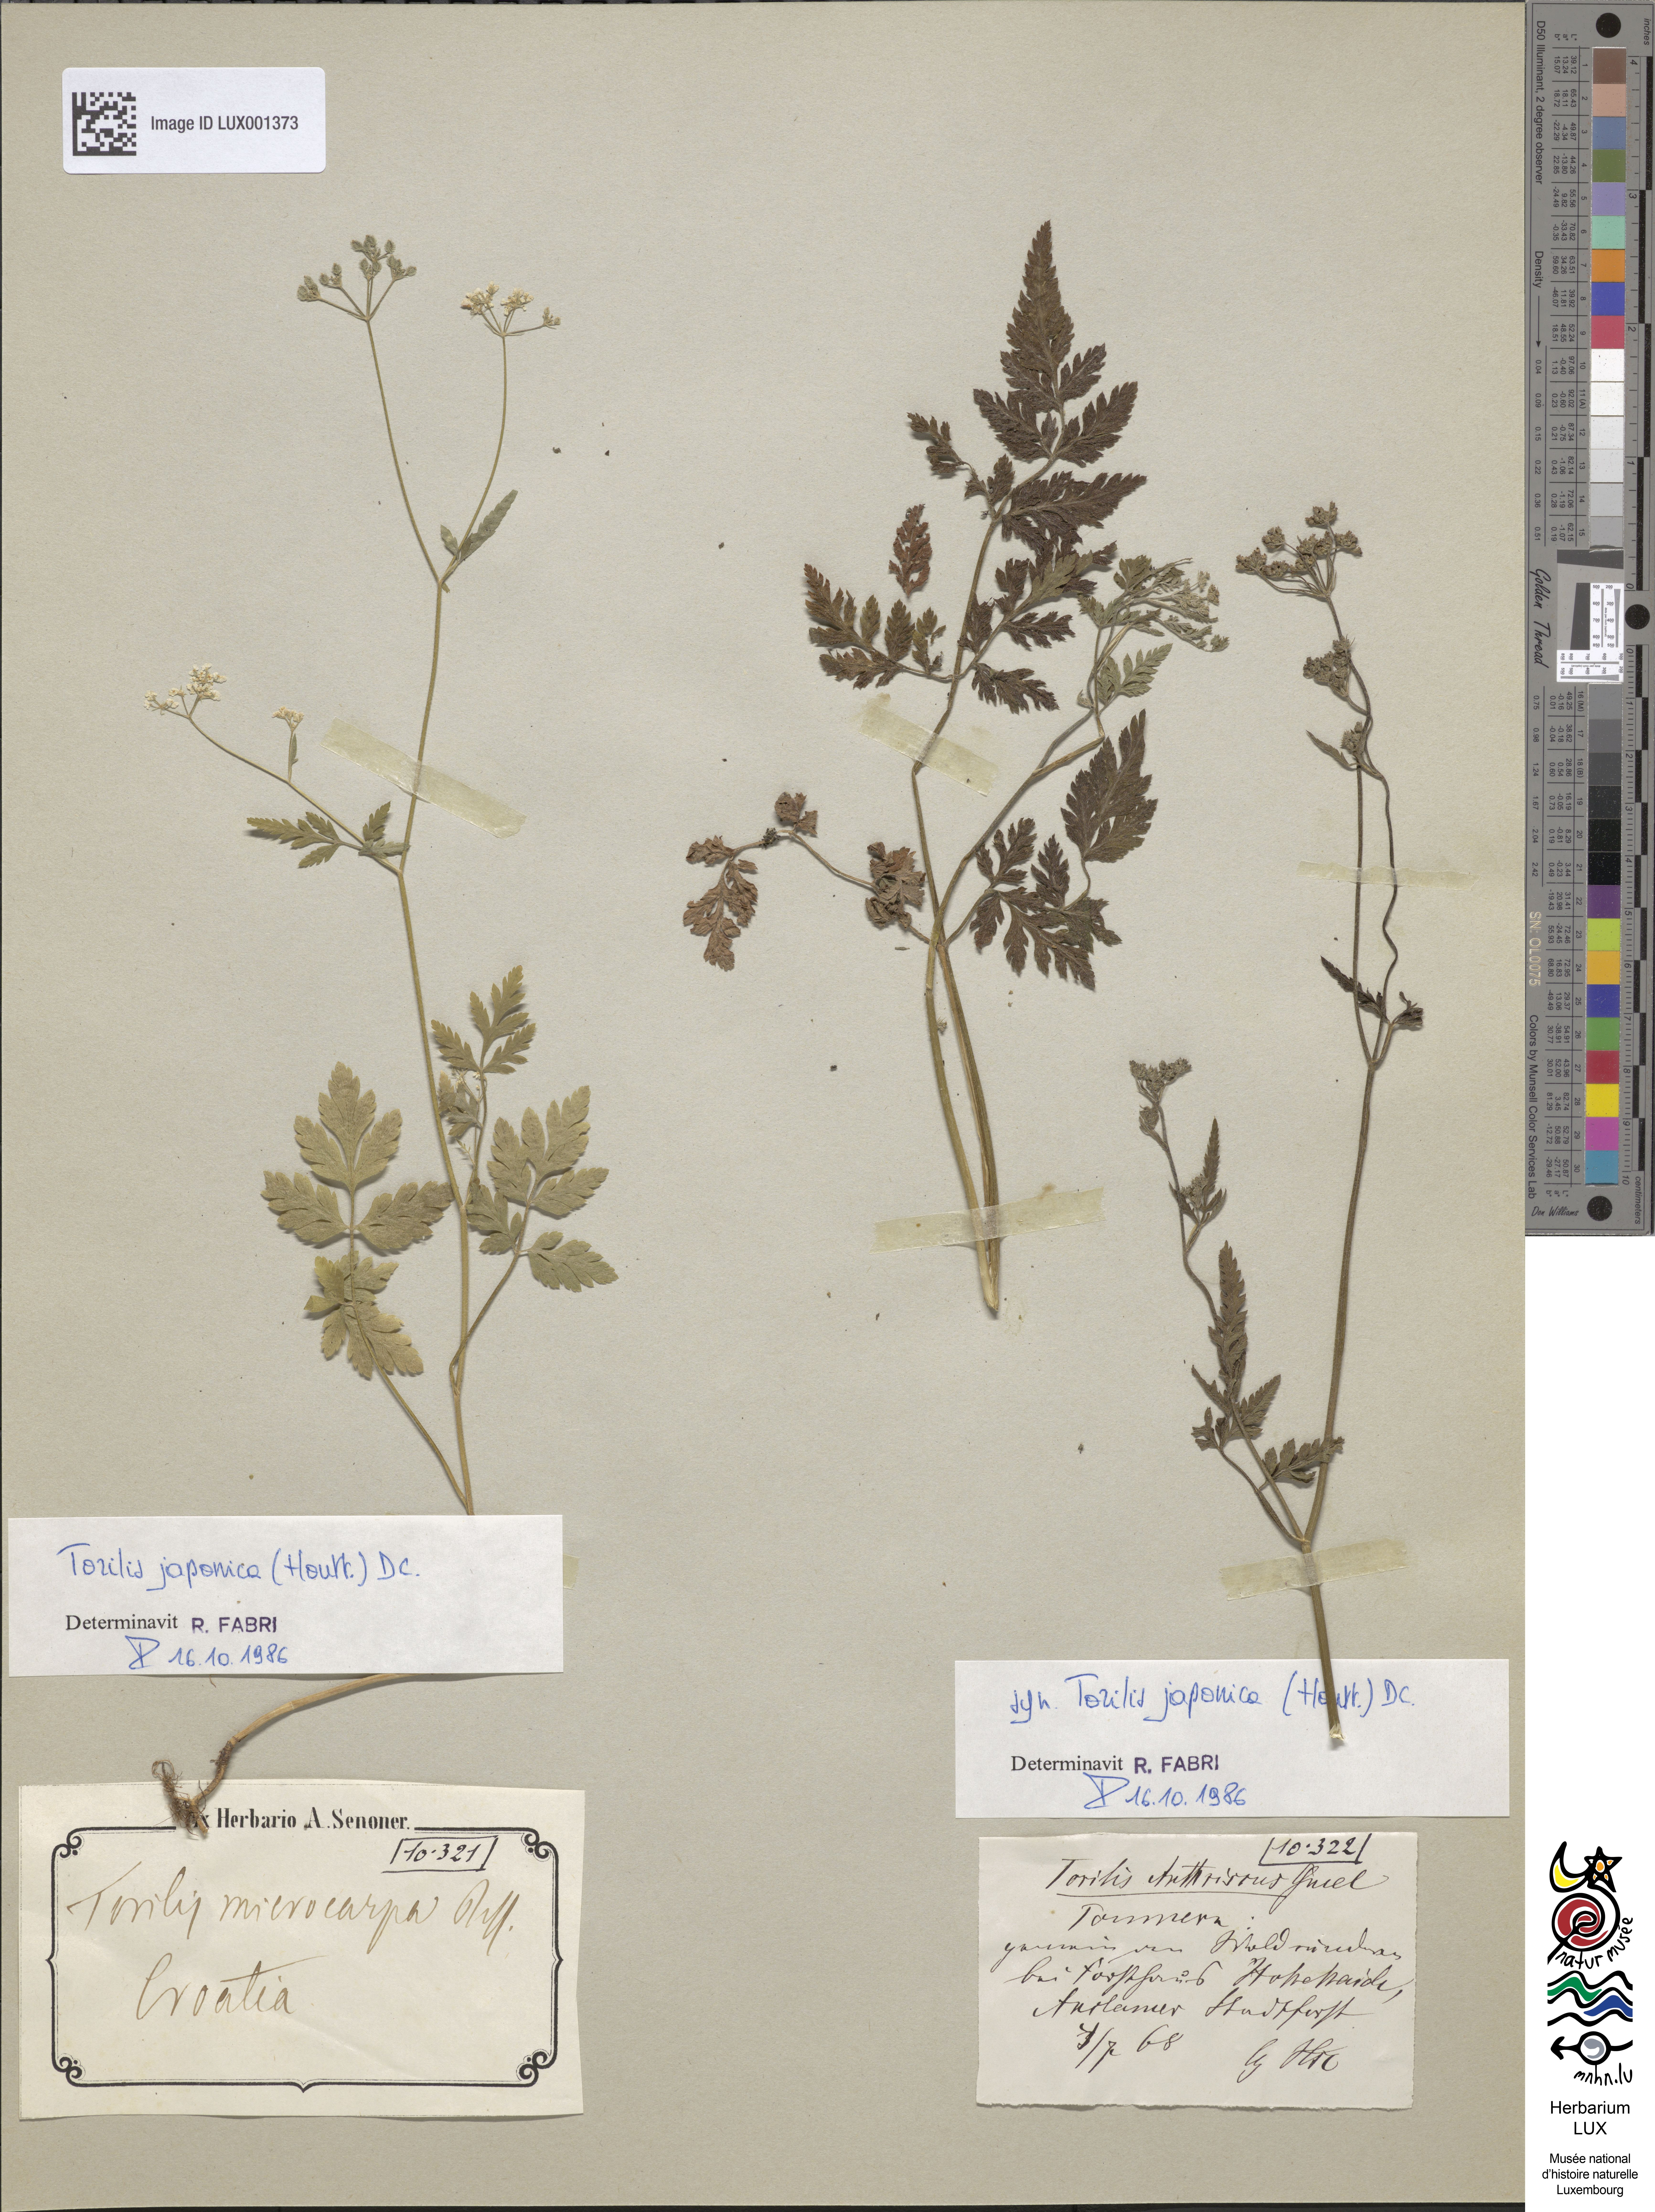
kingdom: Plantae
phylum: Tracheophyta
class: Magnoliopsida
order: Apiales
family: Apiaceae
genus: Torilis
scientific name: Torilis japonica
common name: Upright hedge-parsley
